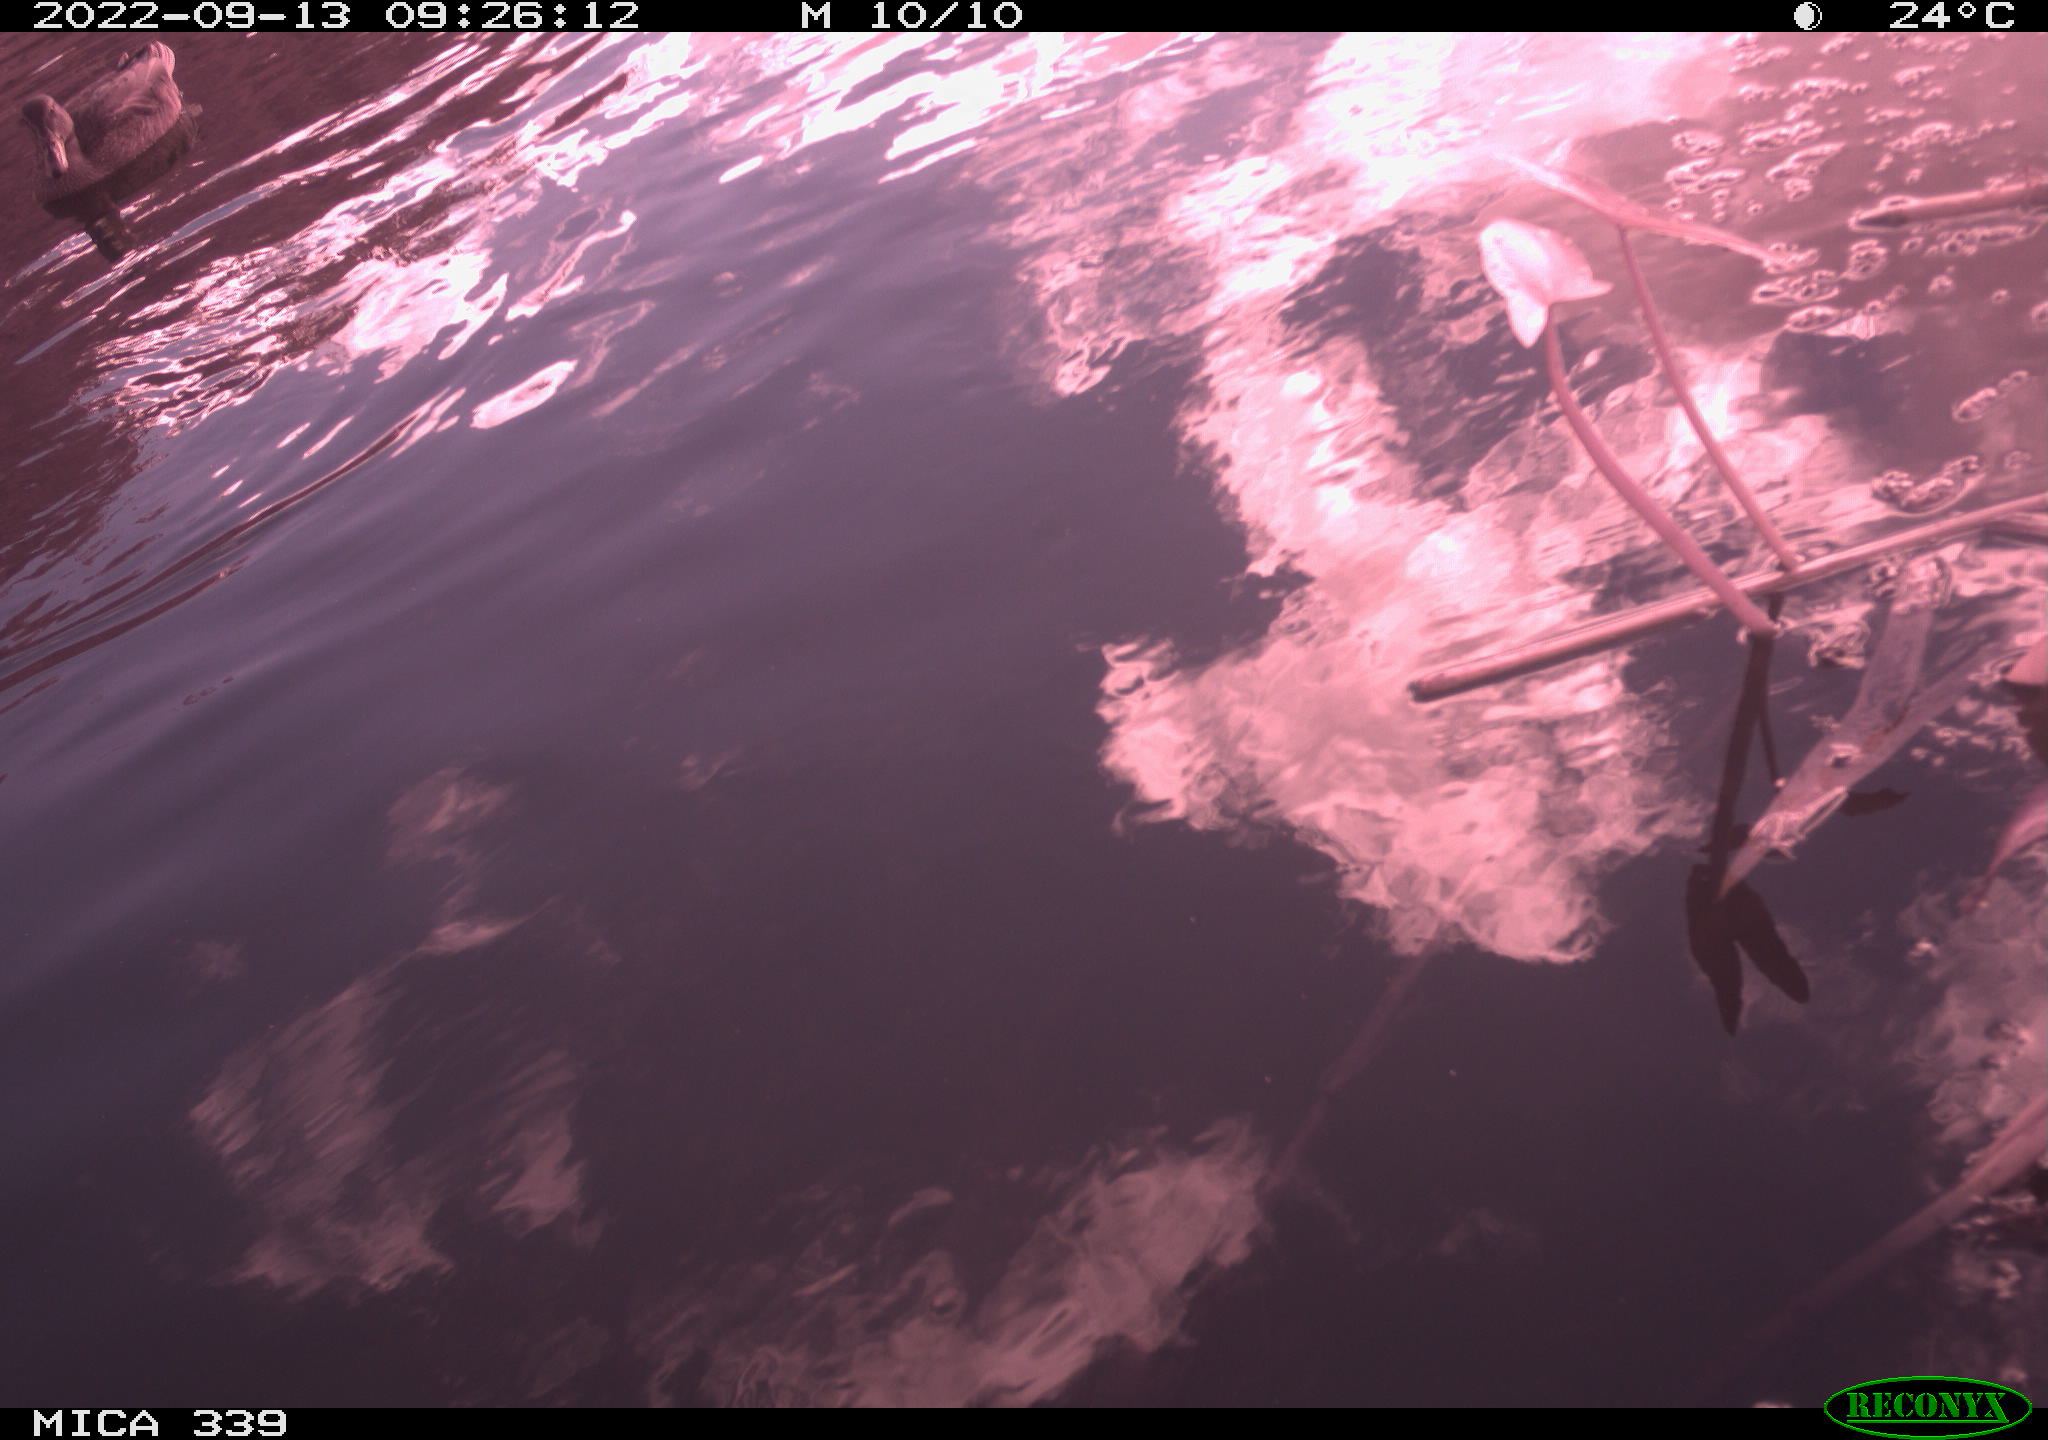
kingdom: Animalia
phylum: Chordata
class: Aves
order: Anseriformes
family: Anatidae
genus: Anas
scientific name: Anas
